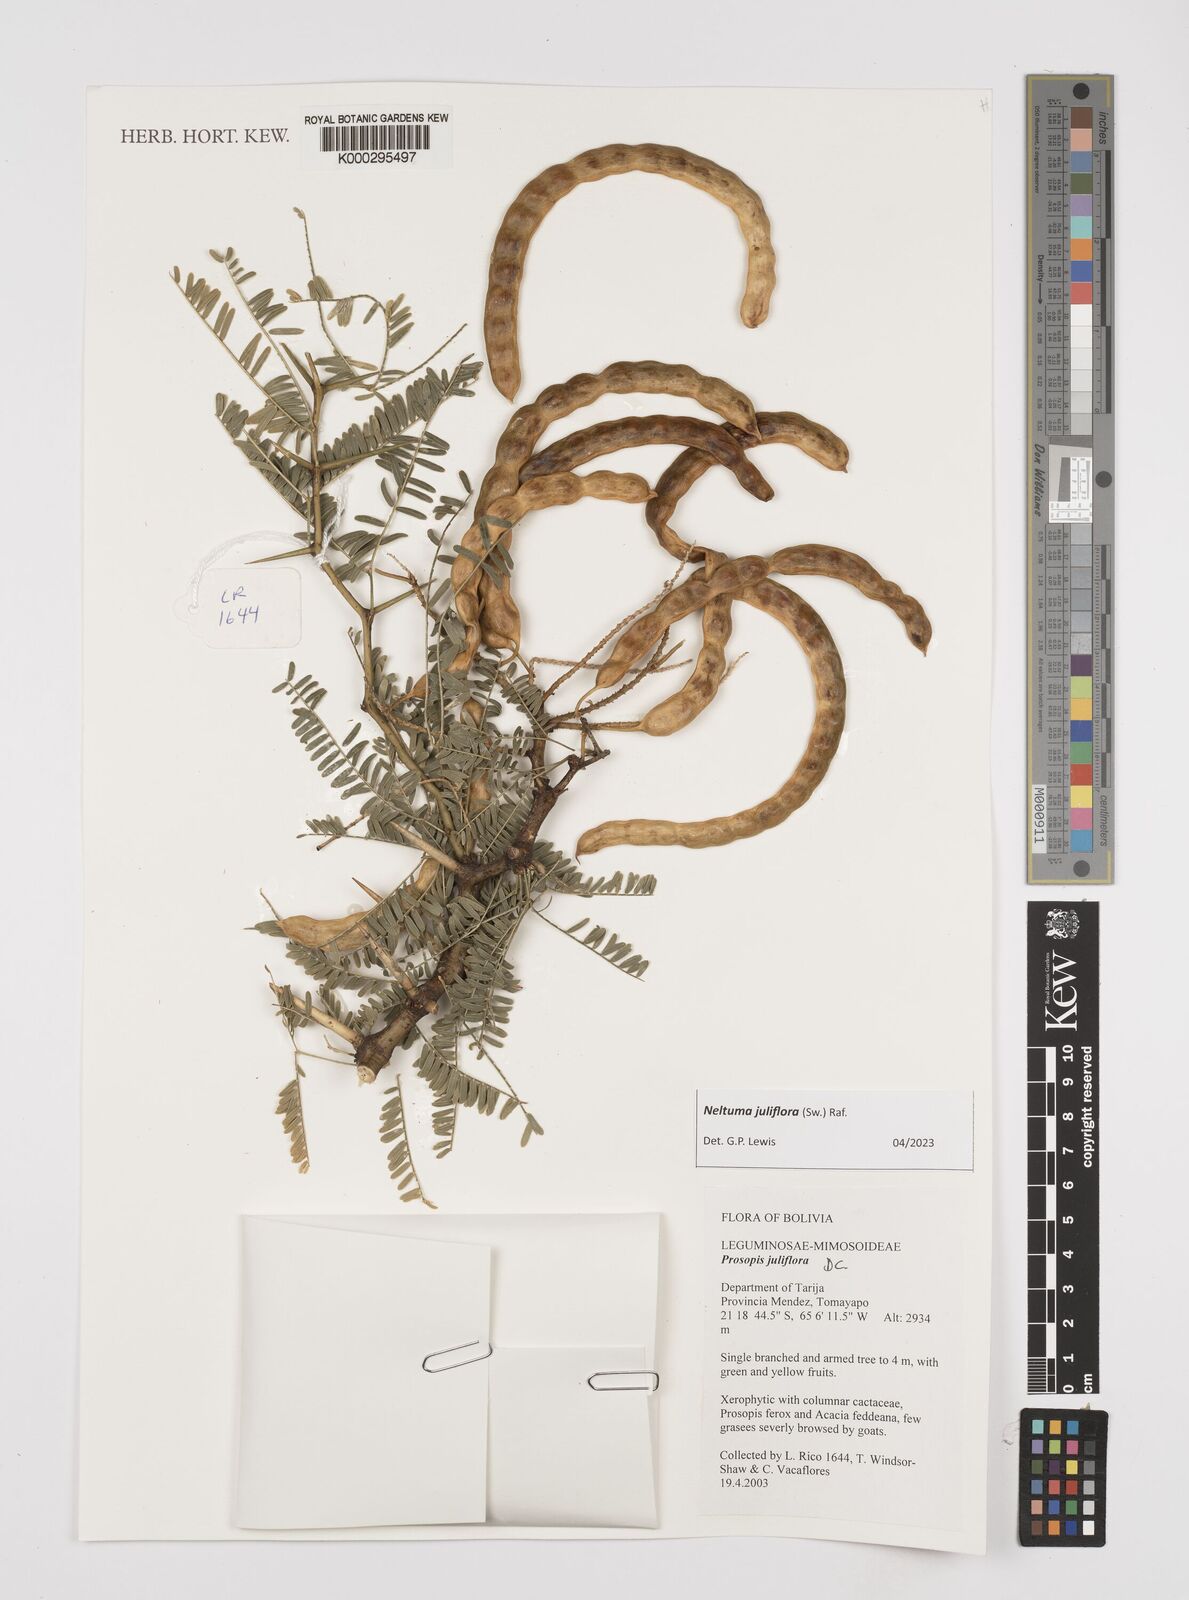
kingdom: Plantae
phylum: Tracheophyta
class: Magnoliopsida
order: Fabales
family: Fabaceae
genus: Prosopis
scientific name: Prosopis juliflora
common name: Mesquite
